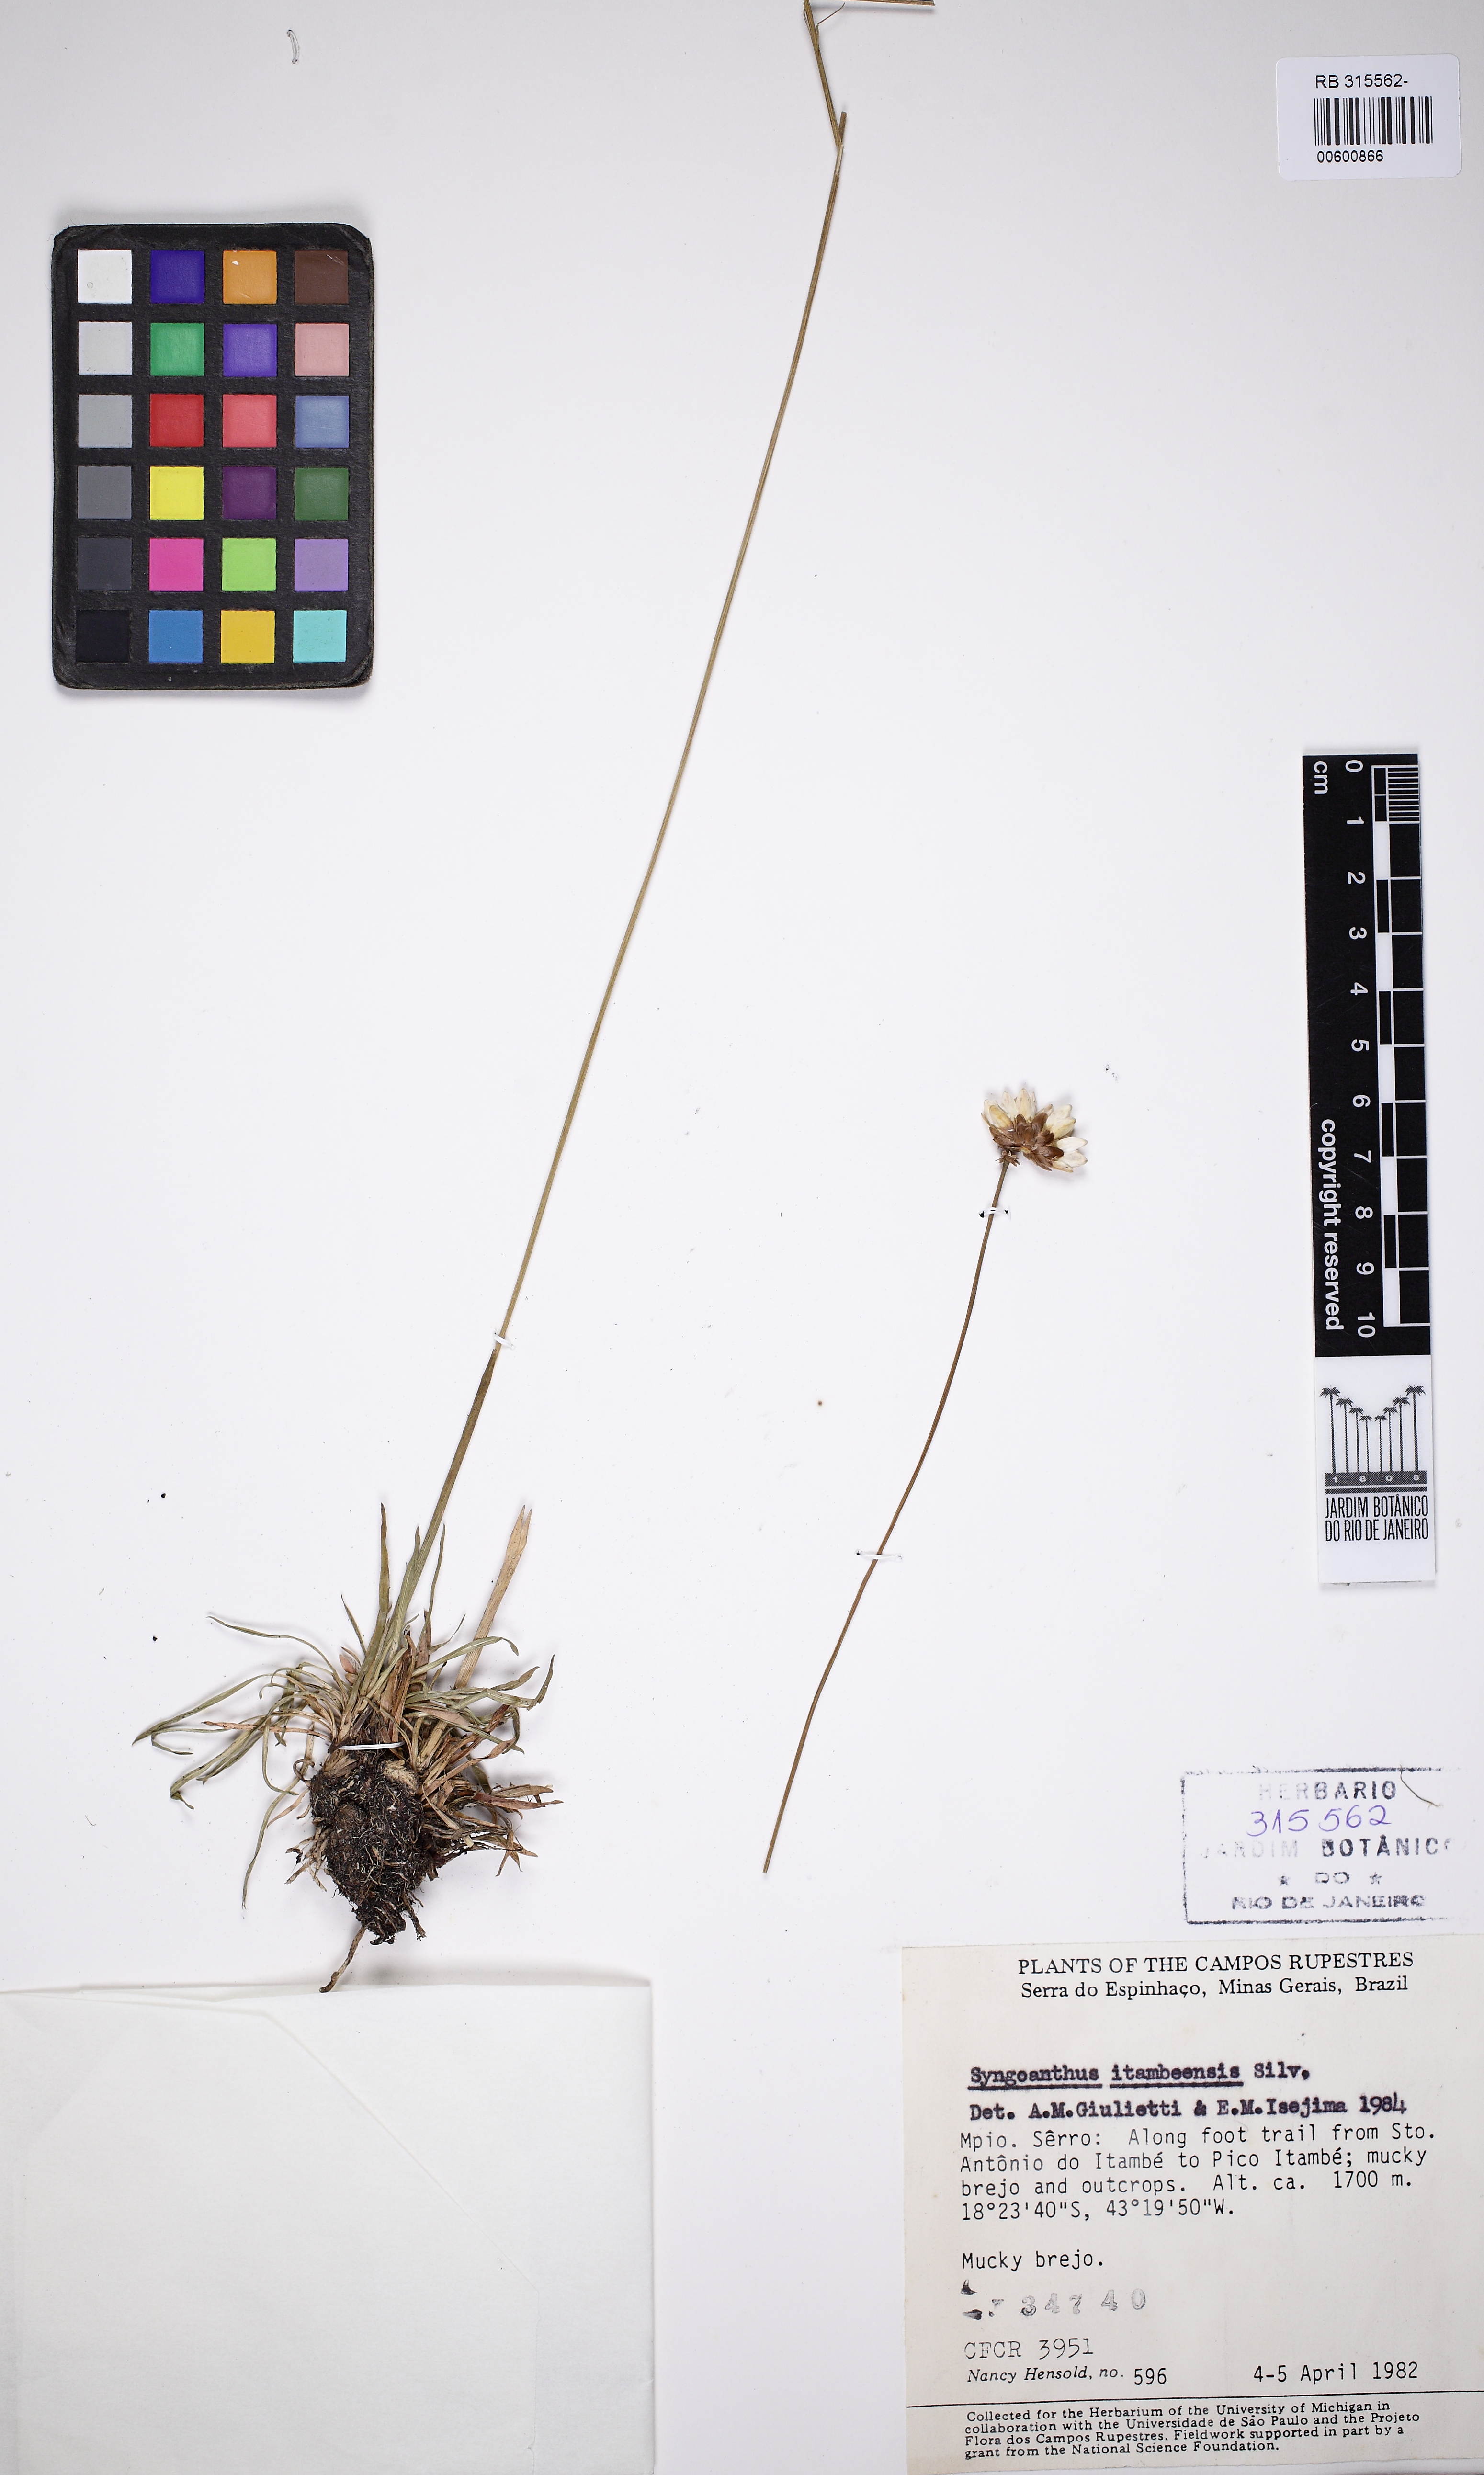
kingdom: Plantae
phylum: Tracheophyta
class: Liliopsida
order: Poales
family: Eriocaulaceae
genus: Syngonanthus
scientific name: Syngonanthus itambeensis
